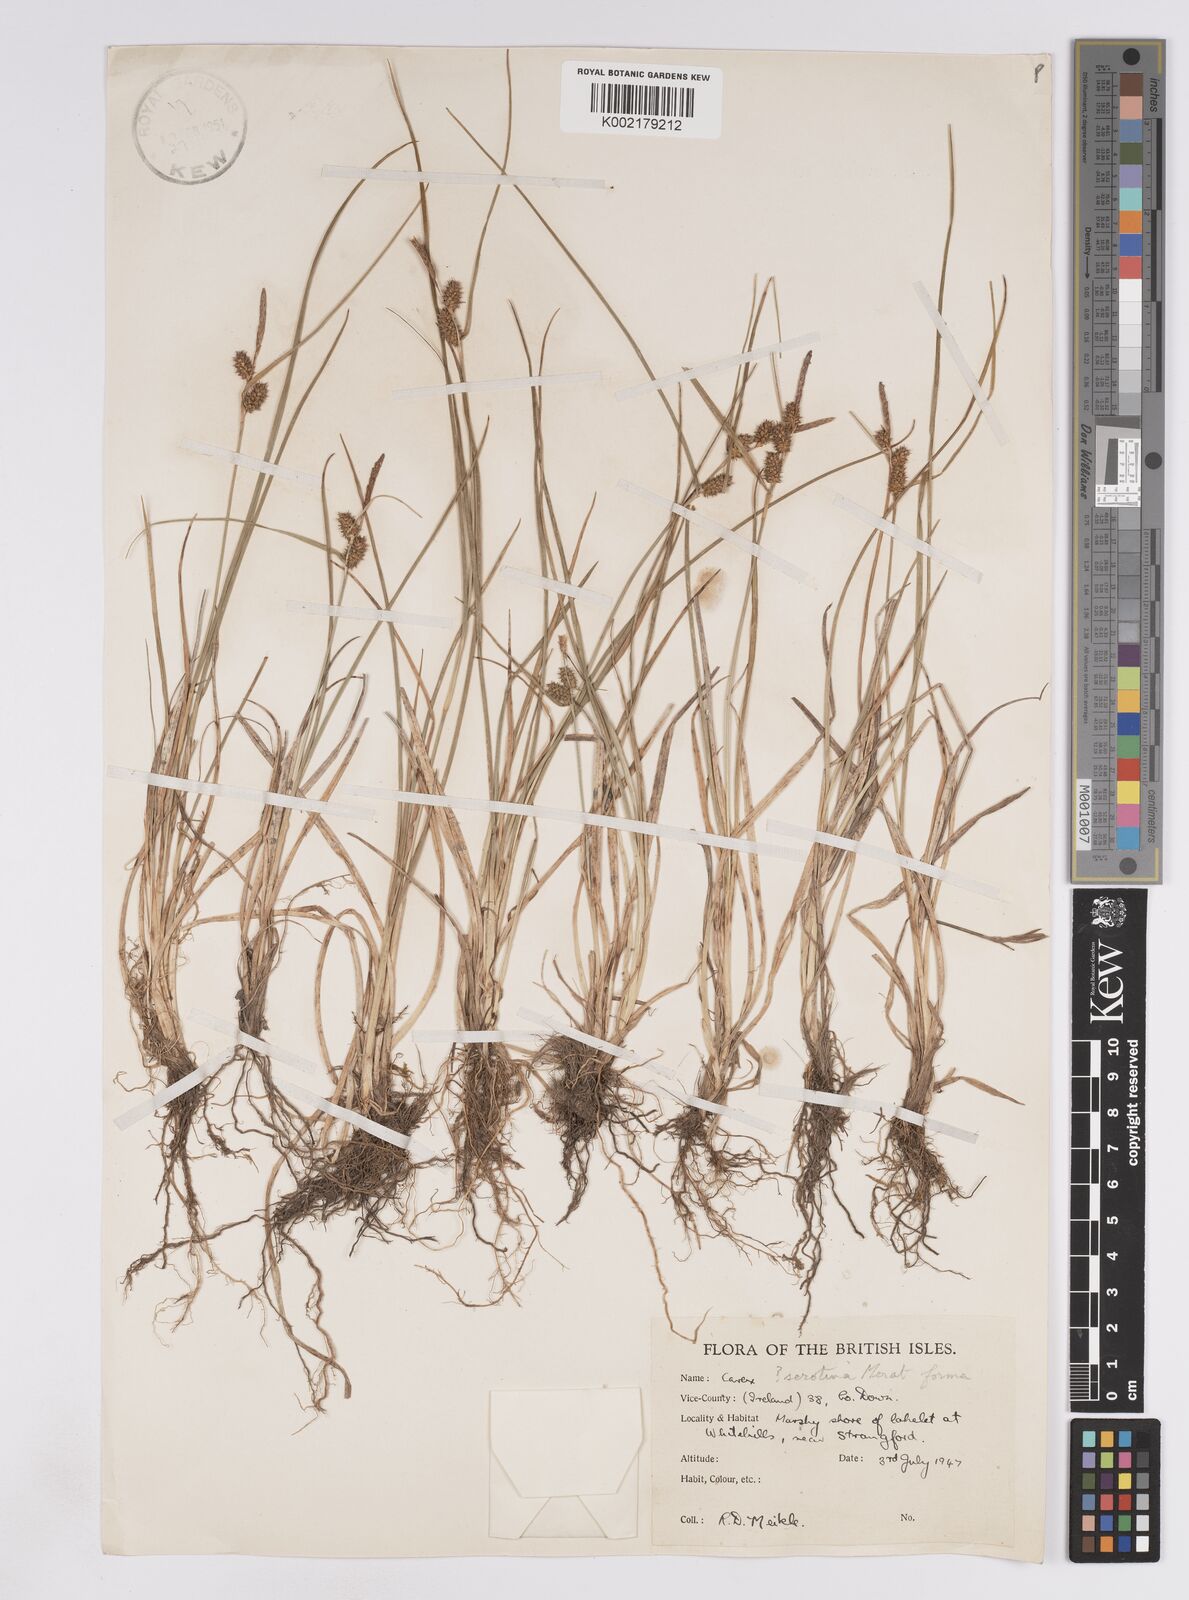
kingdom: Plantae
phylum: Tracheophyta
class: Liliopsida
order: Poales
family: Cyperaceae
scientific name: Cyperaceae
